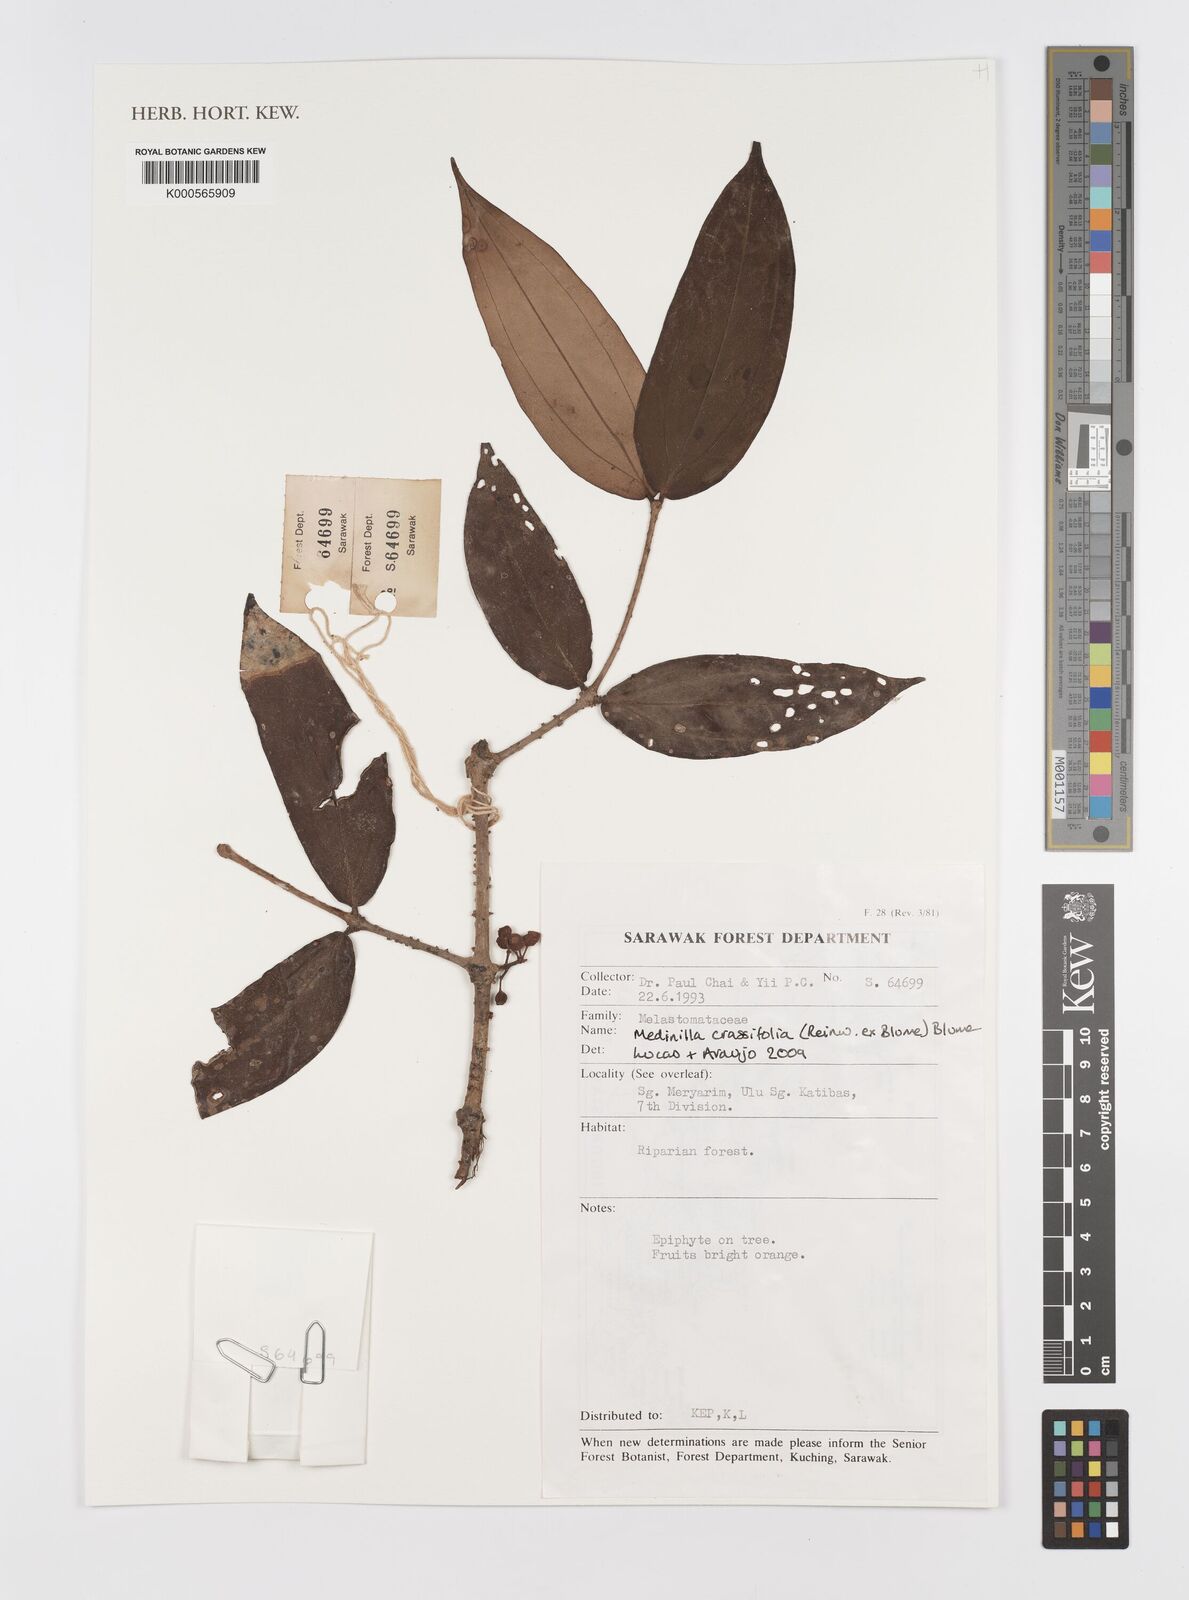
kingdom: Plantae
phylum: Tracheophyta
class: Magnoliopsida
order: Myrtales
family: Melastomataceae
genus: Medinilla
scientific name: Medinilla crassifolia
